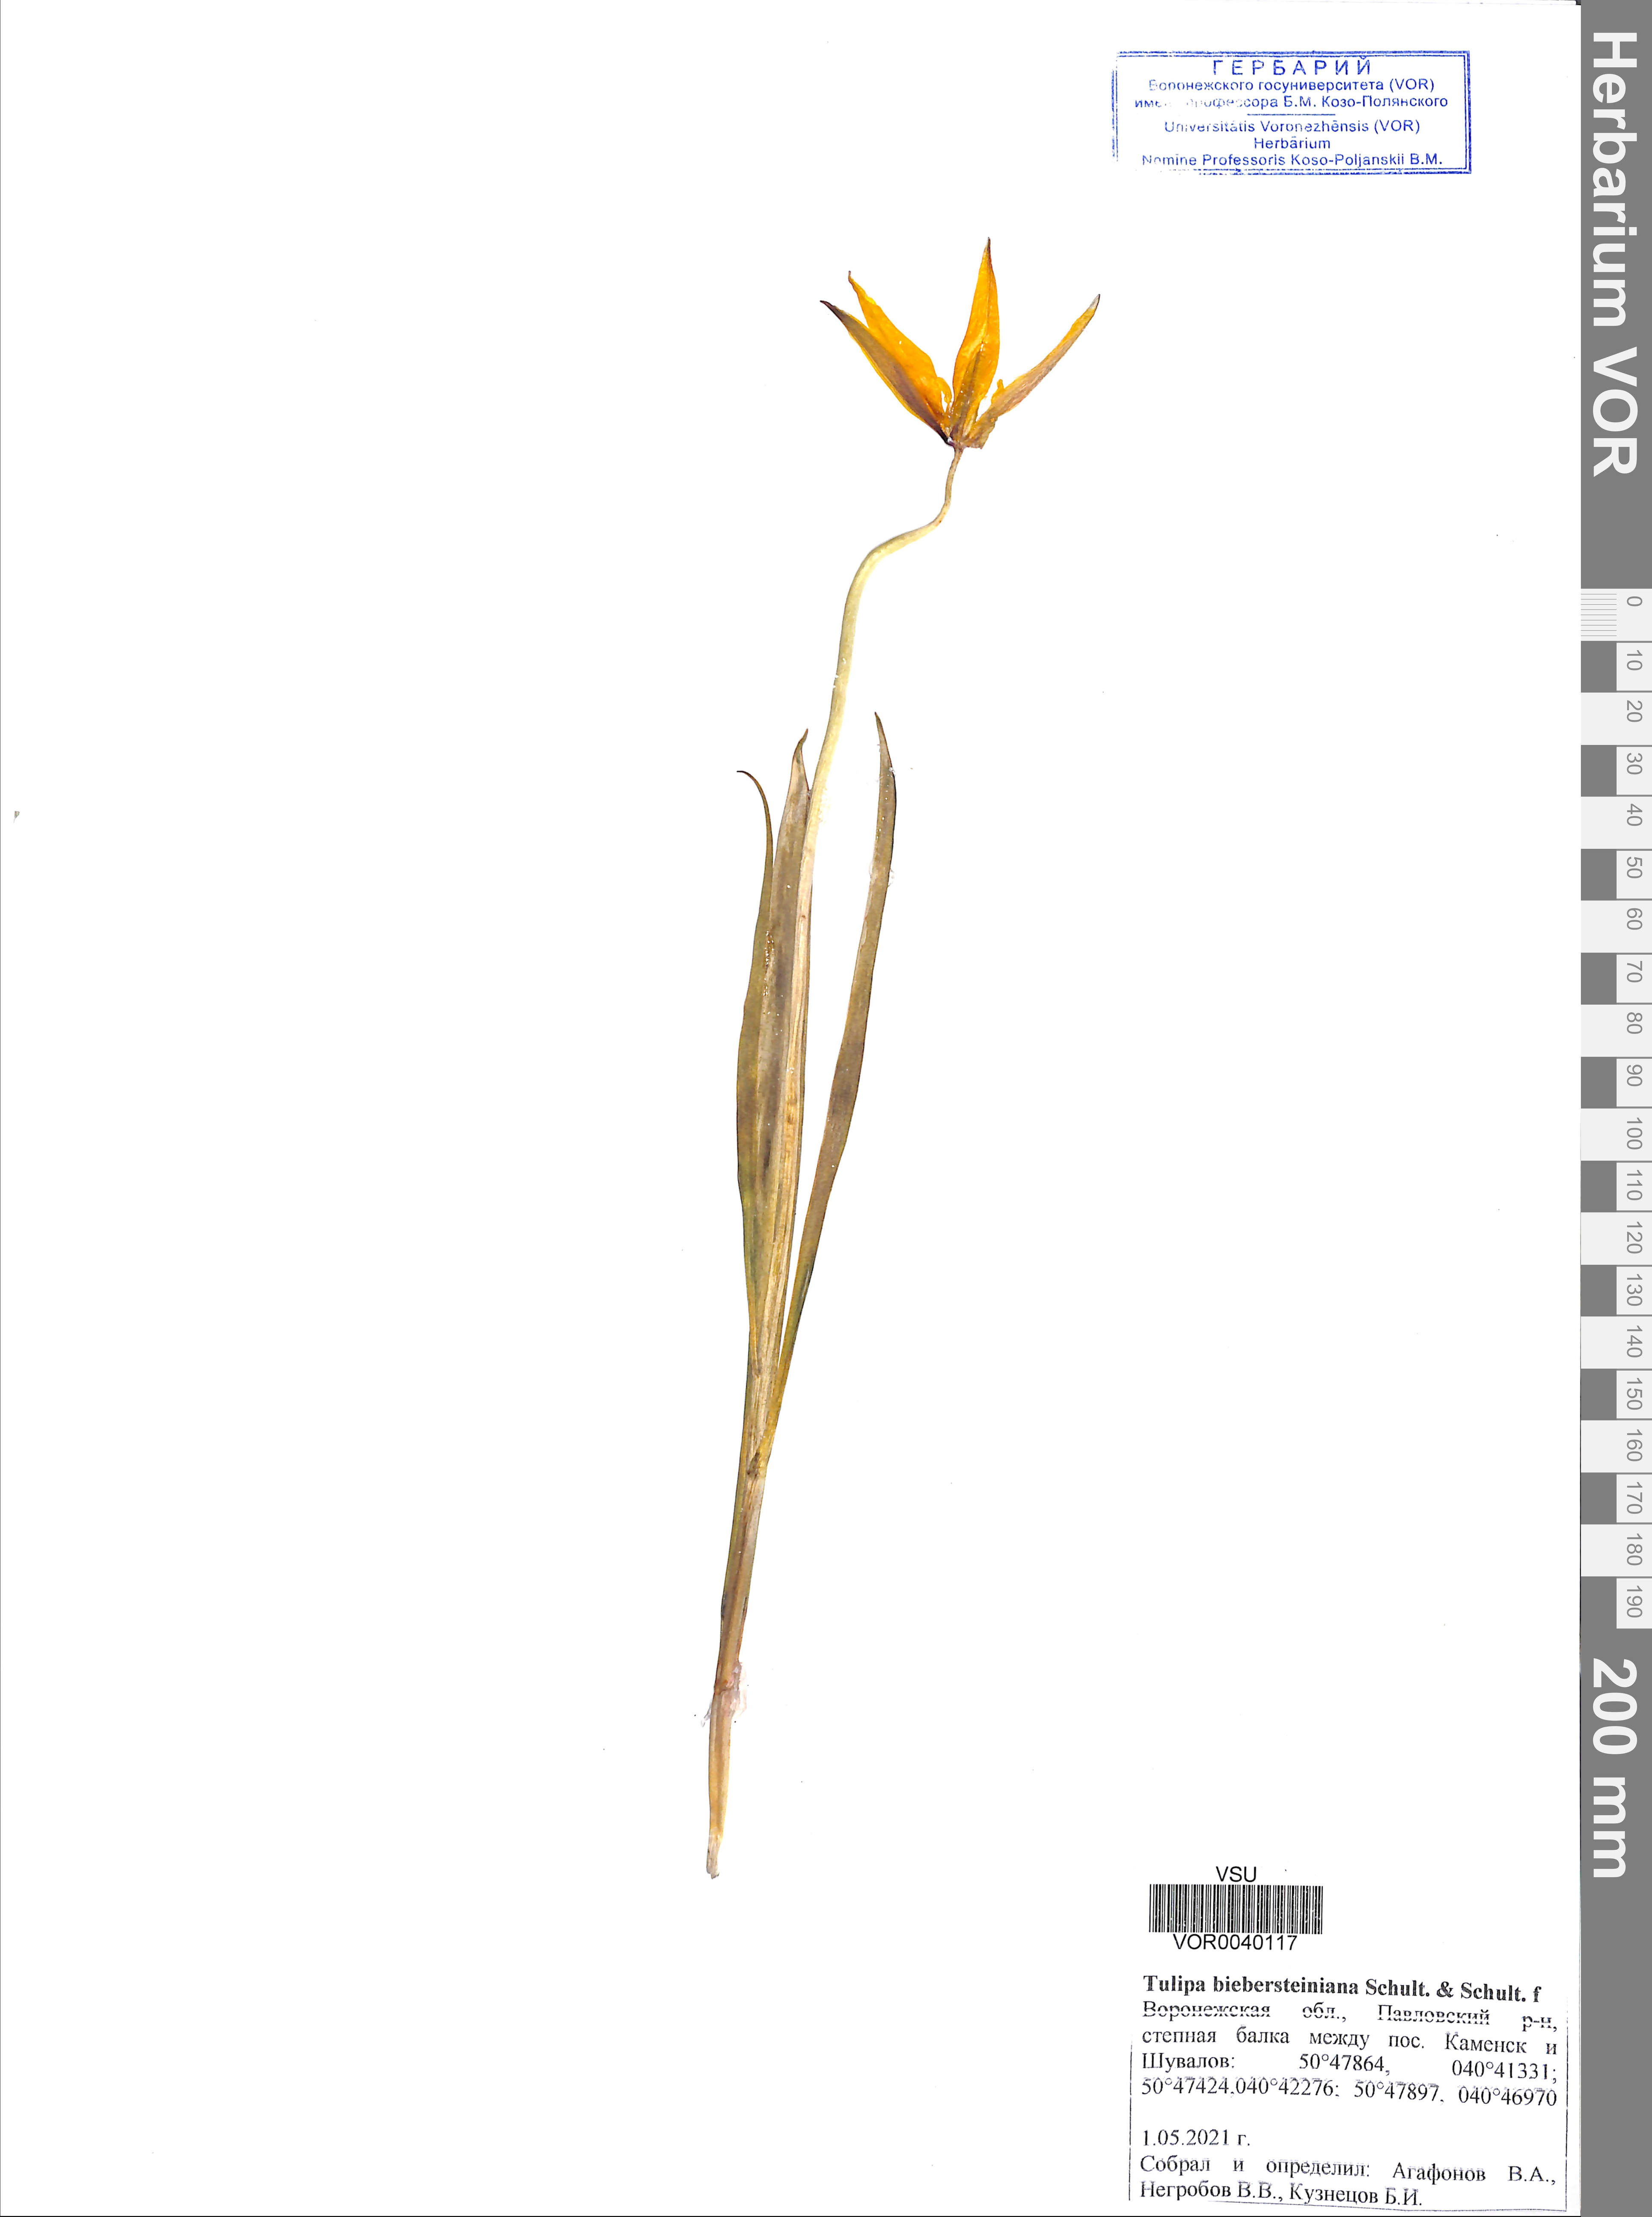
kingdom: Plantae
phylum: Tracheophyta
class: Liliopsida
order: Liliales
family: Liliaceae
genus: Tulipa
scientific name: Tulipa sylvestris
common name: Wild tulip
